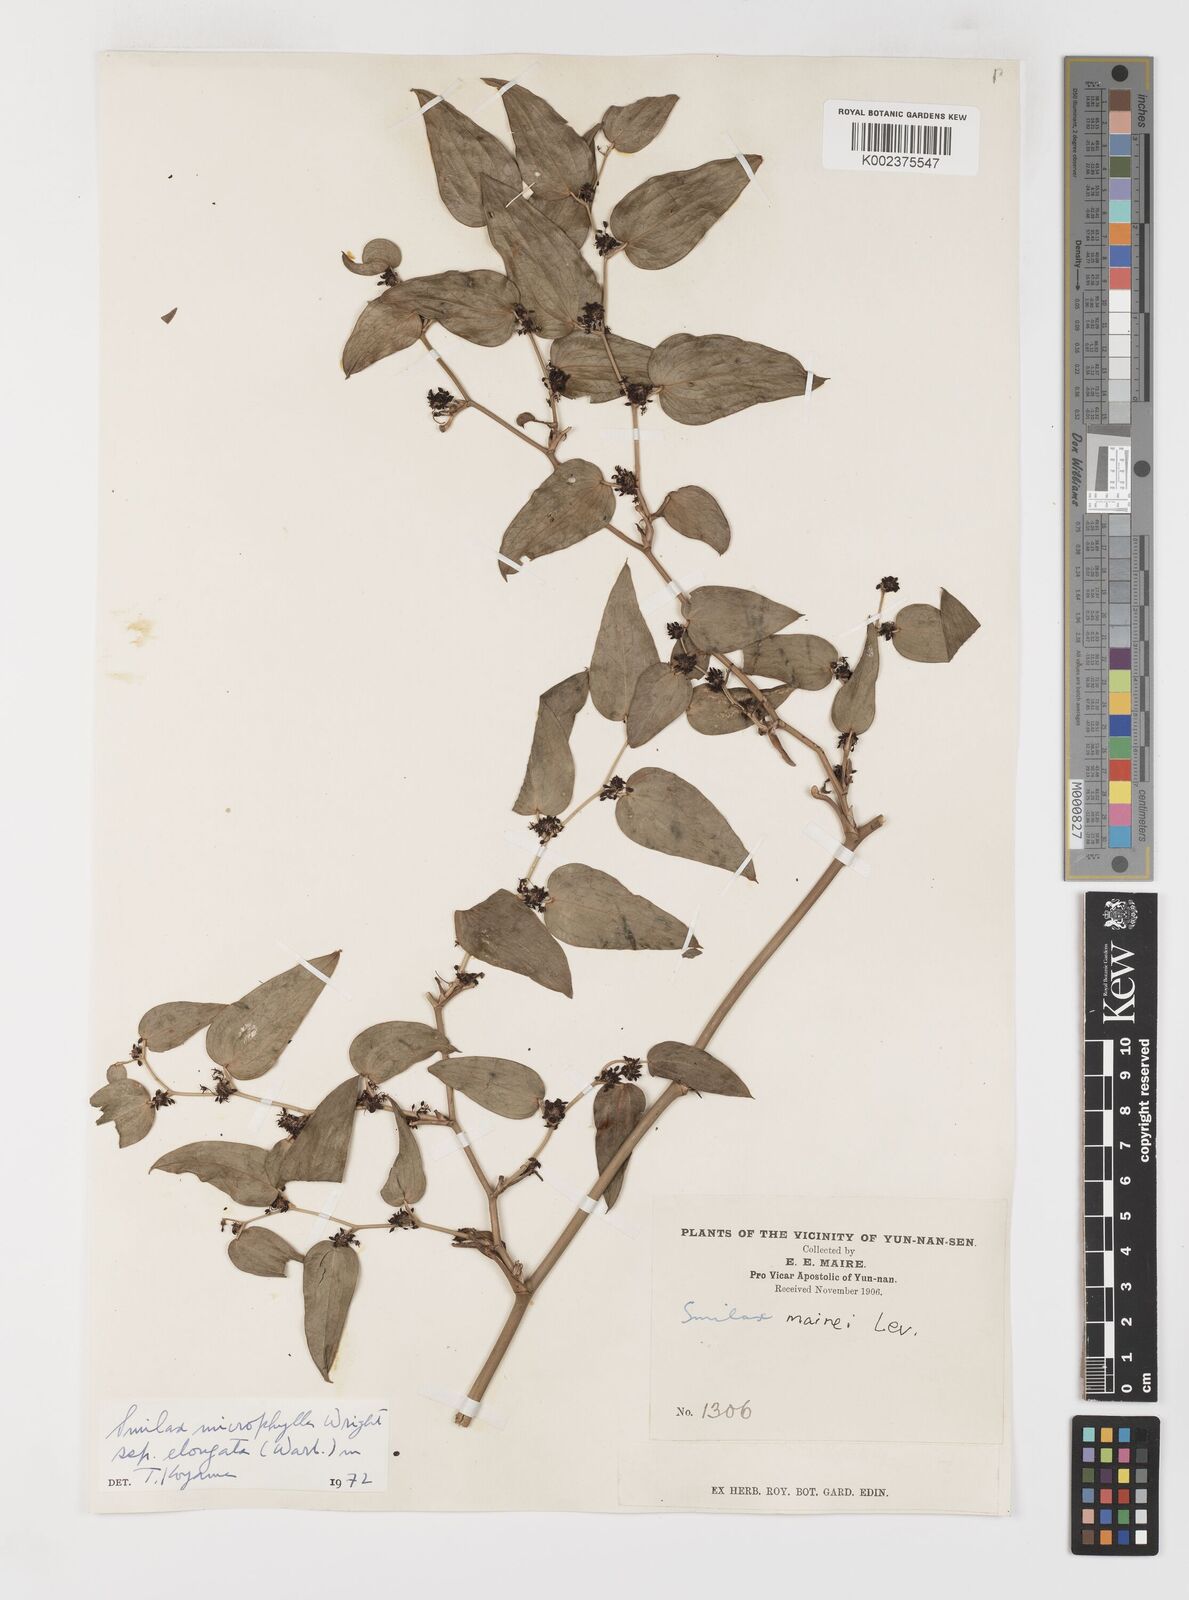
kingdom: Plantae
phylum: Tracheophyta
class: Liliopsida
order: Liliales
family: Smilacaceae
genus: Smilax
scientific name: Smilax lanceifolia
